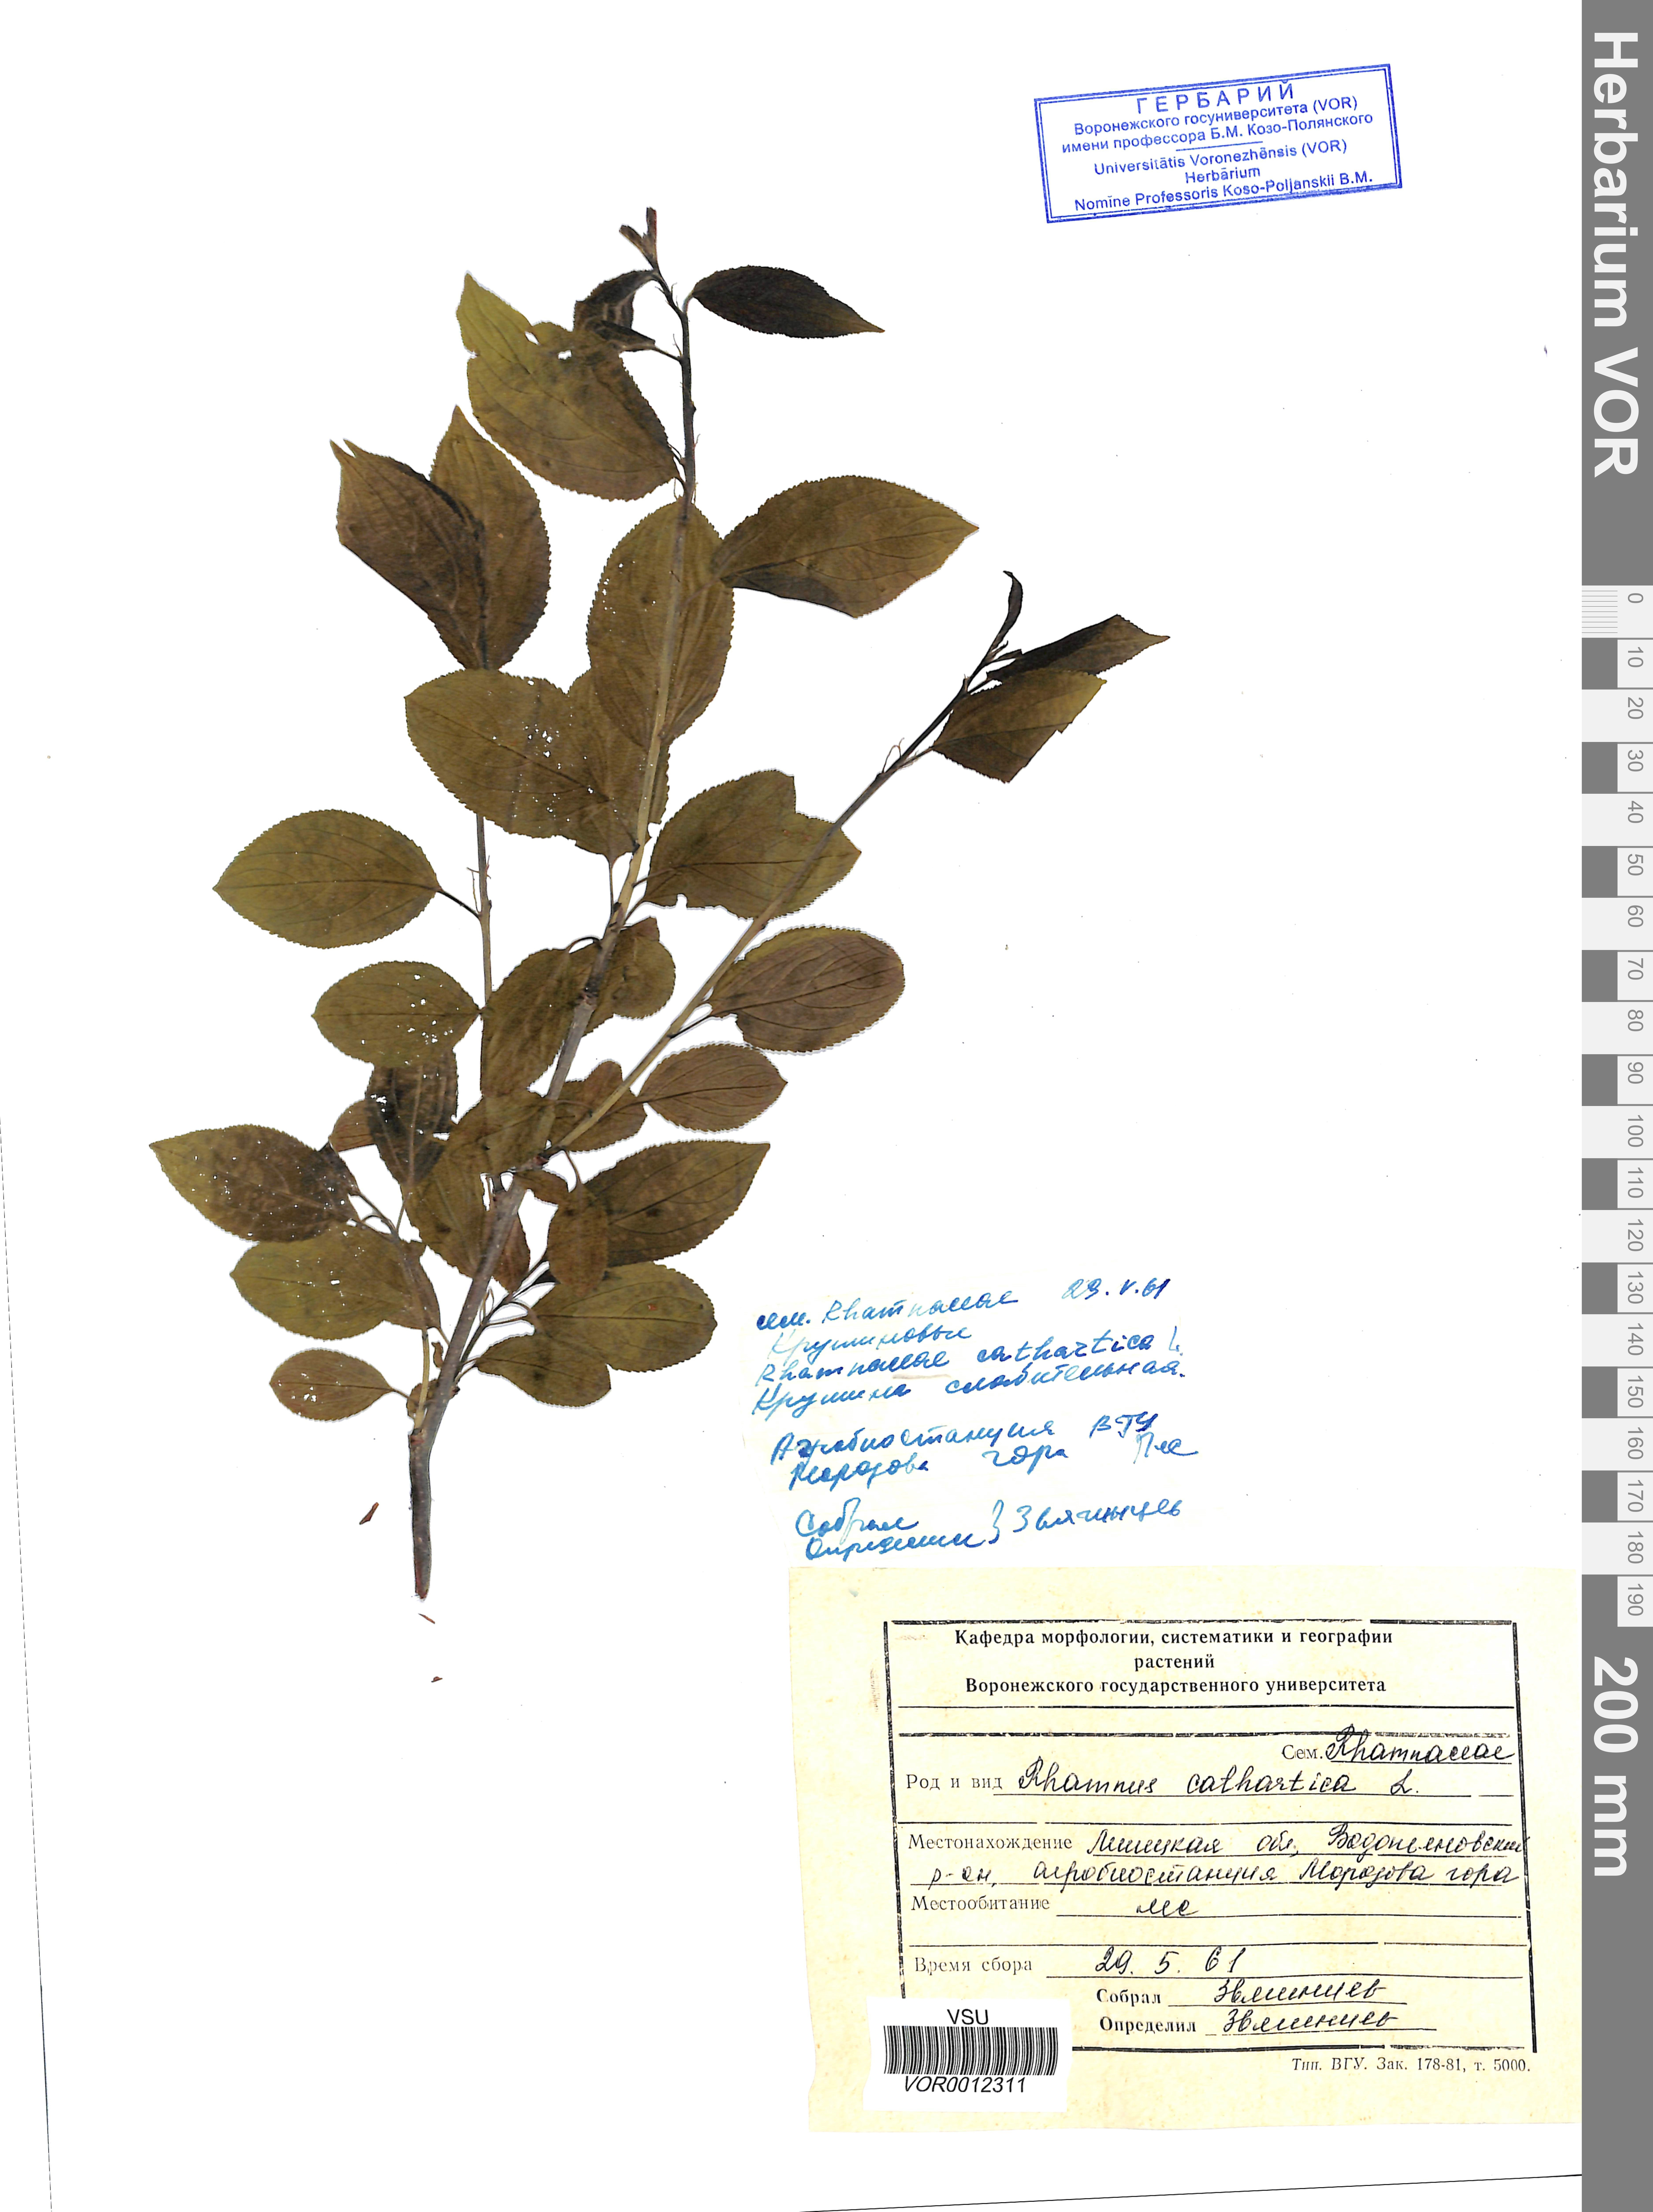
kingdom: Plantae
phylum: Tracheophyta
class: Magnoliopsida
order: Rosales
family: Rhamnaceae
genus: Rhamnus
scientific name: Rhamnus cathartica
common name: Common buckthorn
